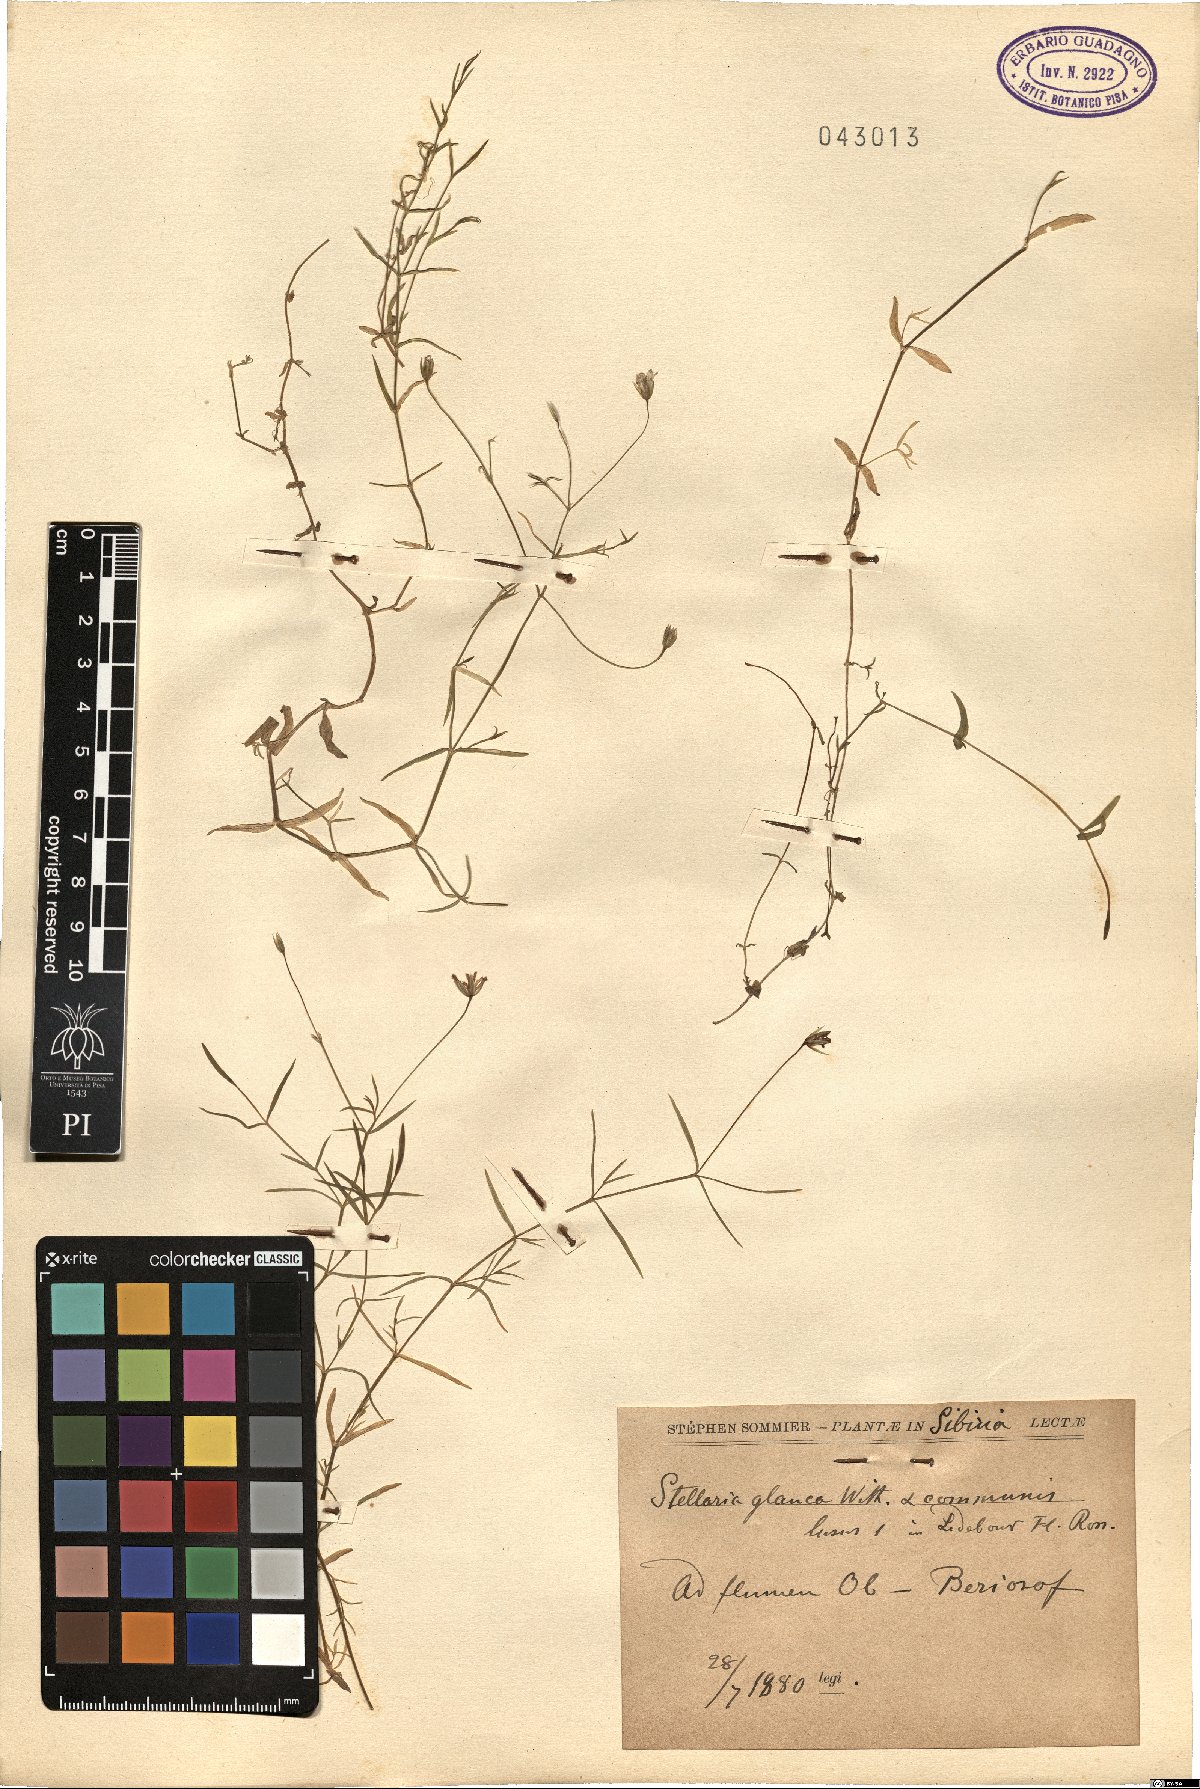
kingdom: Plantae
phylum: Tracheophyta
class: Magnoliopsida
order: Caryophyllales
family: Caryophyllaceae
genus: Stellaria
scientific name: Stellaria palustris
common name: Marsh stitchwort
